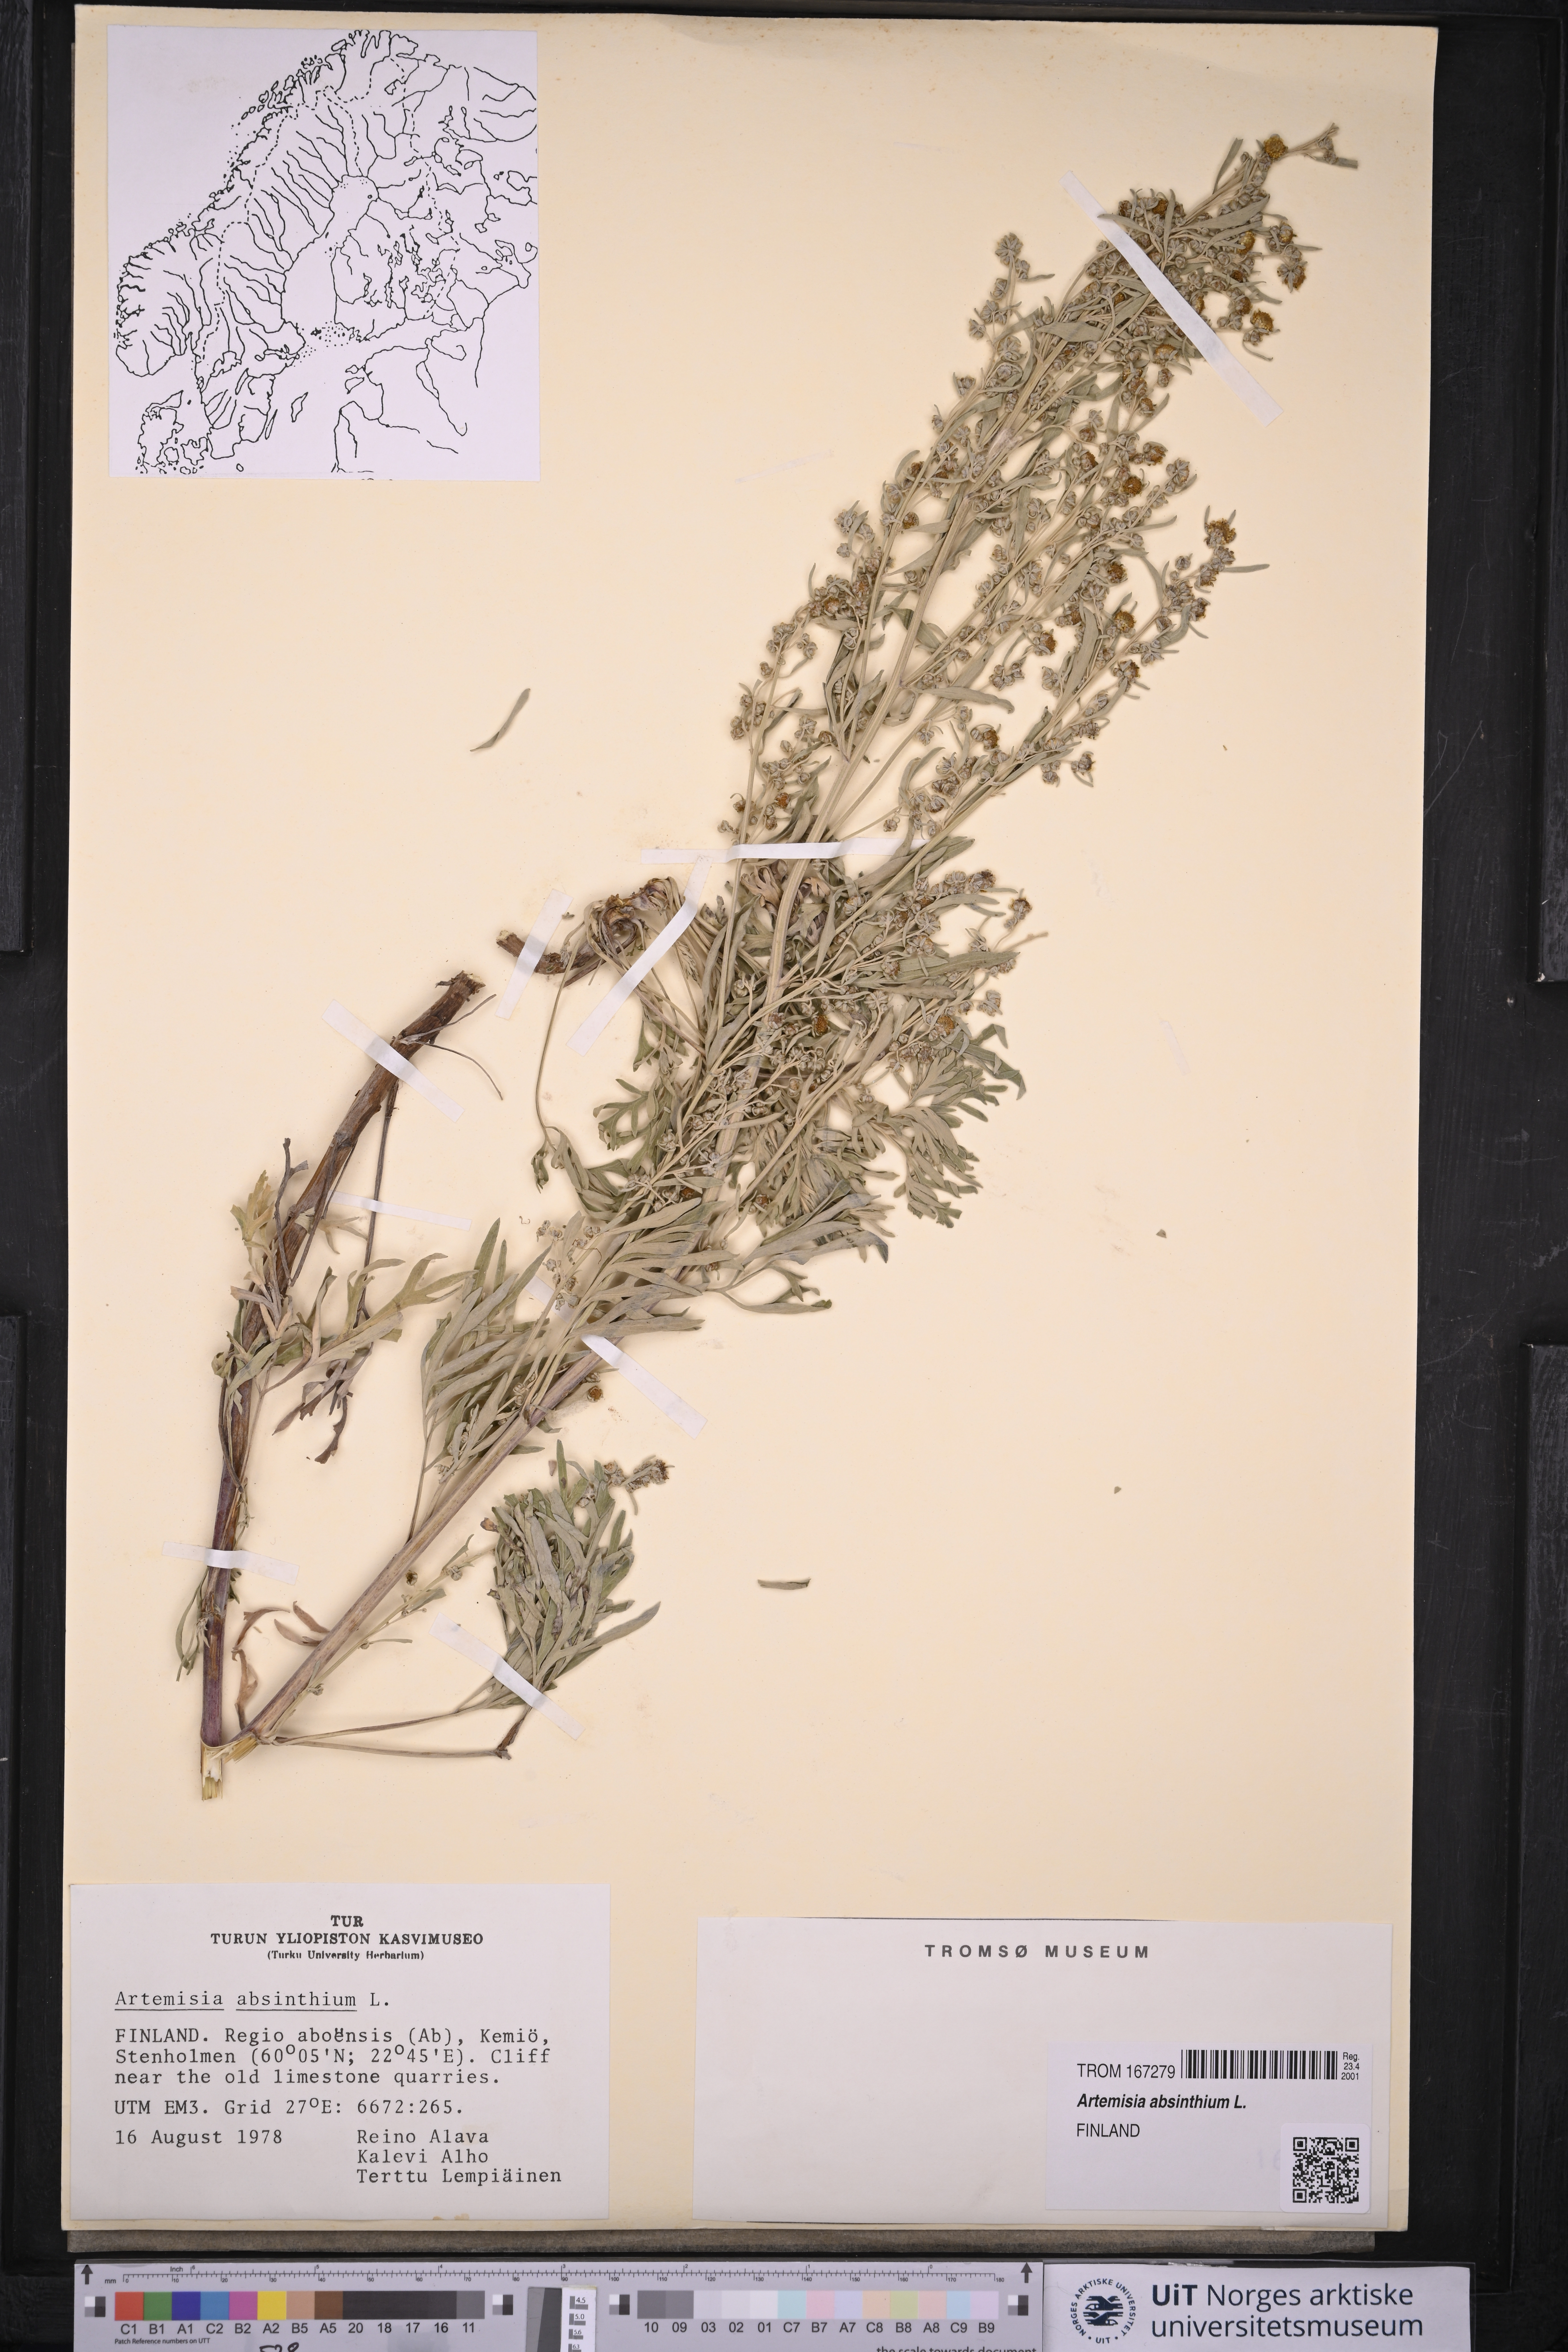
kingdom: Plantae
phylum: Tracheophyta
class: Magnoliopsida
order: Asterales
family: Asteraceae
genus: Artemisia
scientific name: Artemisia absinthium
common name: Wormwood
